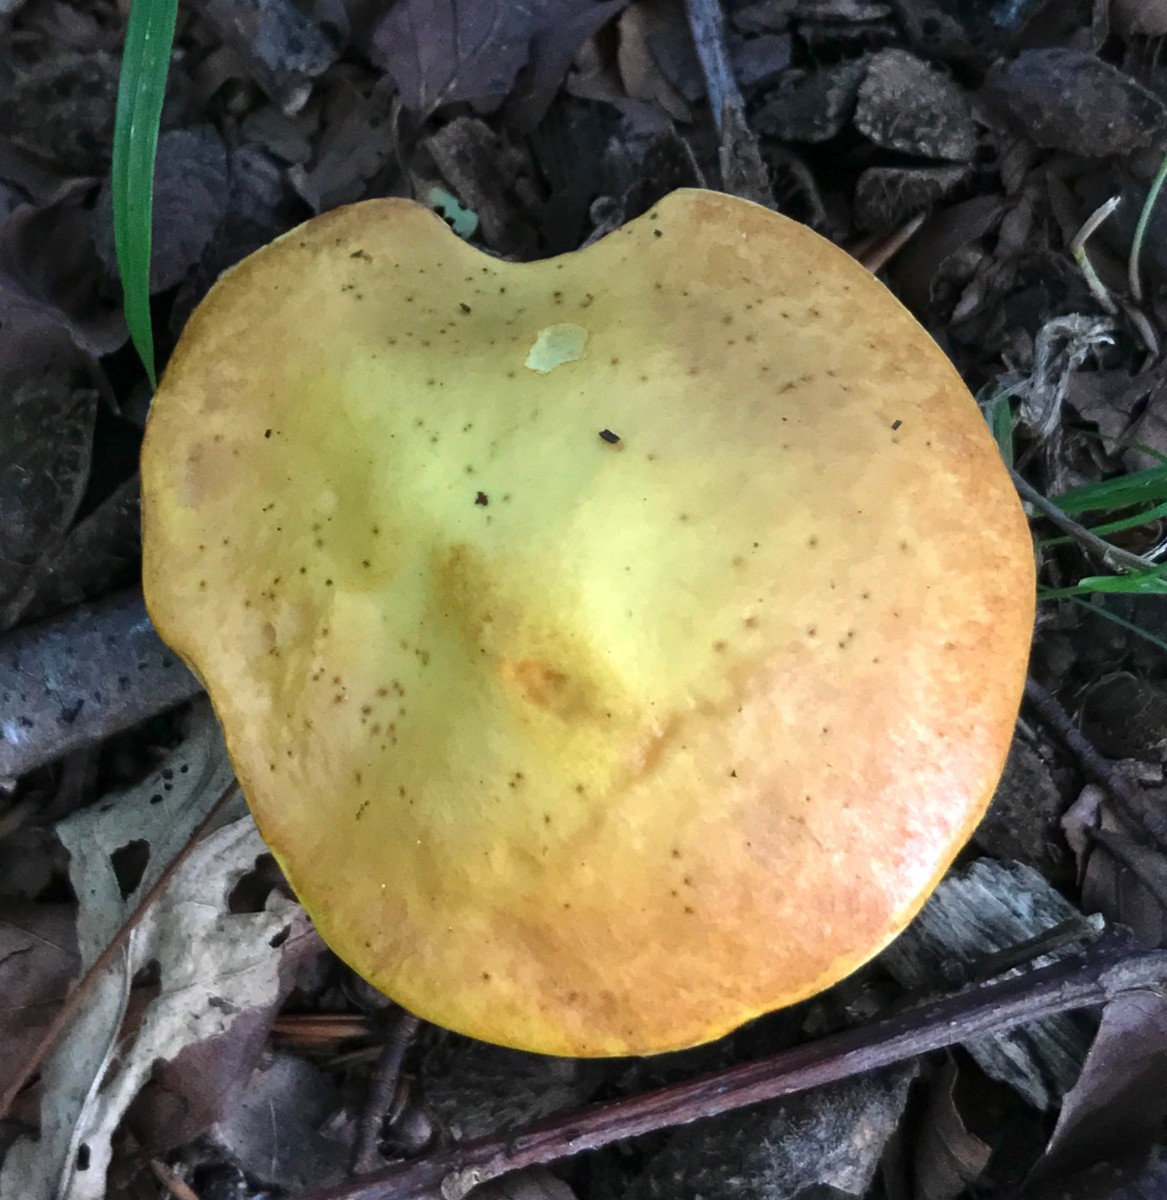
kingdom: Fungi
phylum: Basidiomycota
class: Agaricomycetes
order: Boletales
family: Suillaceae
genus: Suillus
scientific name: Suillus grevillei
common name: lærke-slimrørhat
